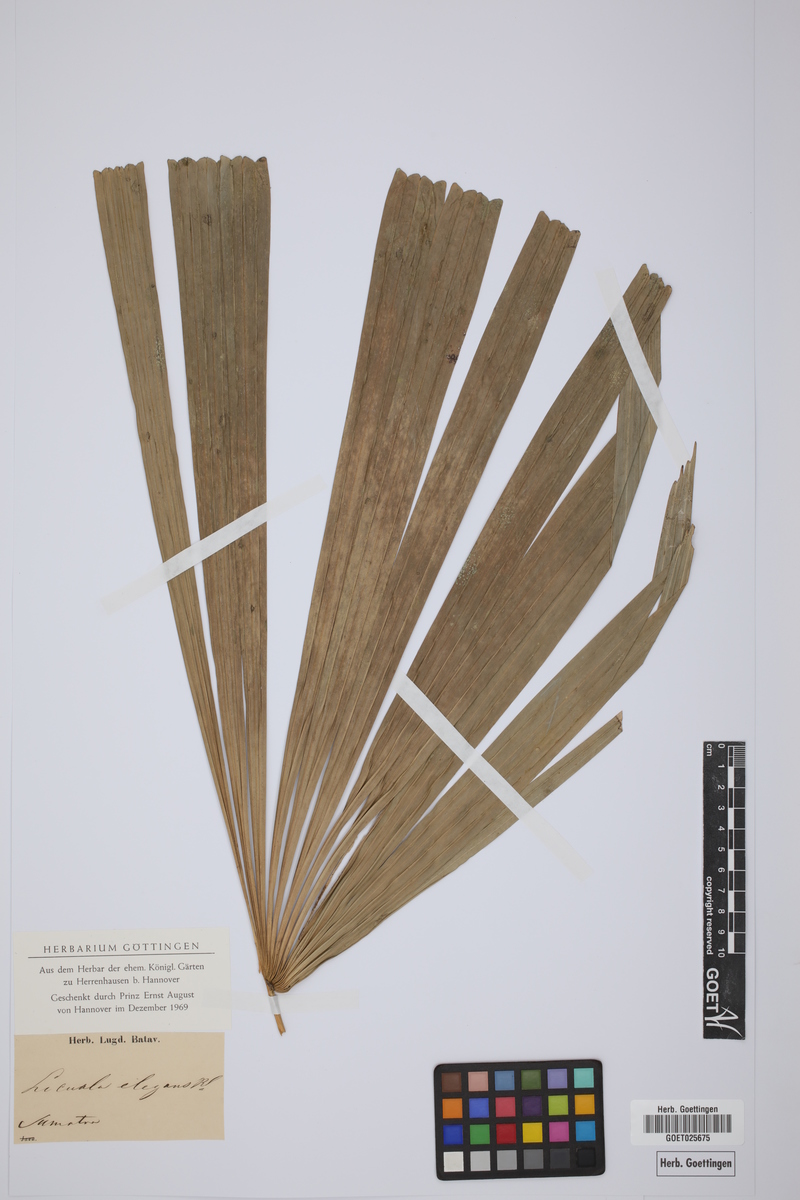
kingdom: Plantae
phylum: Tracheophyta
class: Liliopsida
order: Arecales
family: Arecaceae
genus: Licuala
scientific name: Licuala elegans
